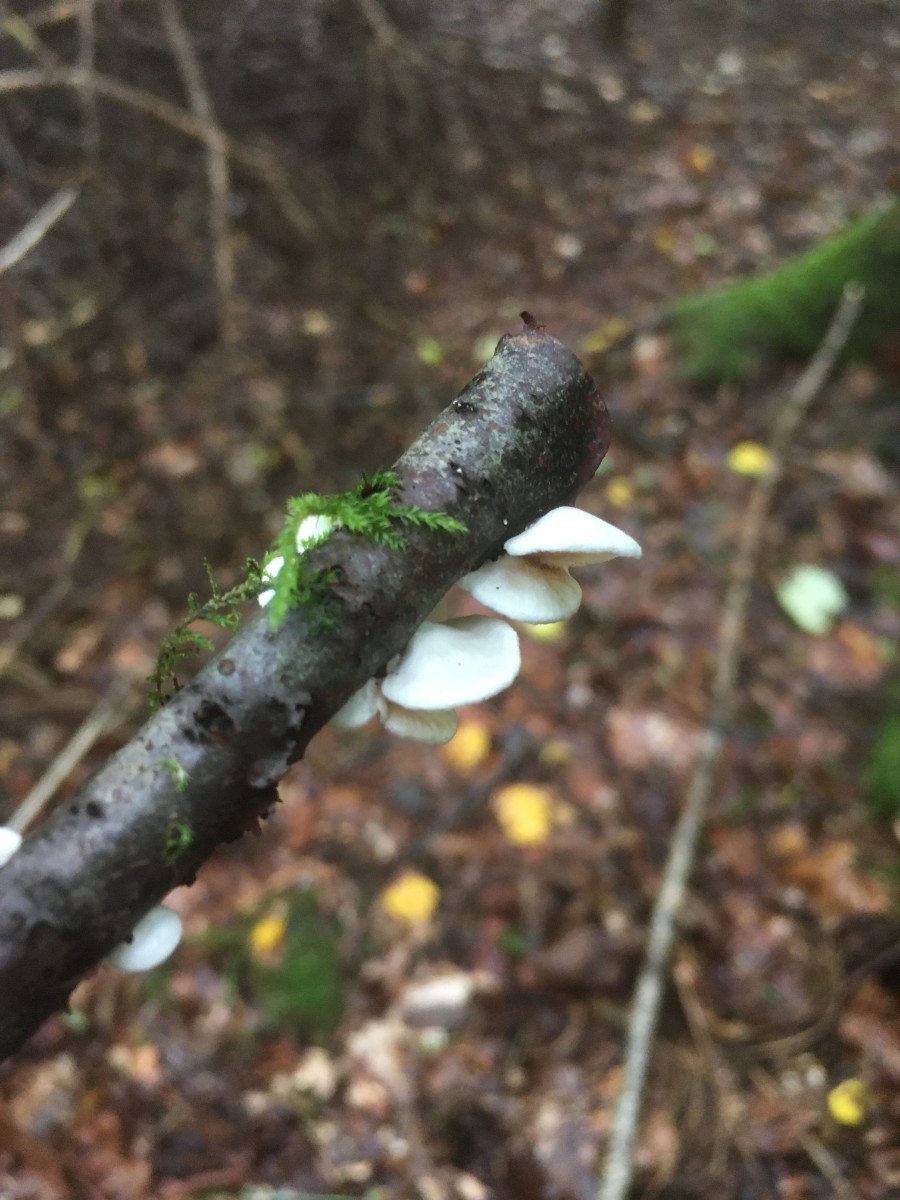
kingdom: Fungi
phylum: Basidiomycota
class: Agaricomycetes
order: Agaricales
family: Crepidotaceae
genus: Crepidotus
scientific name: Crepidotus
